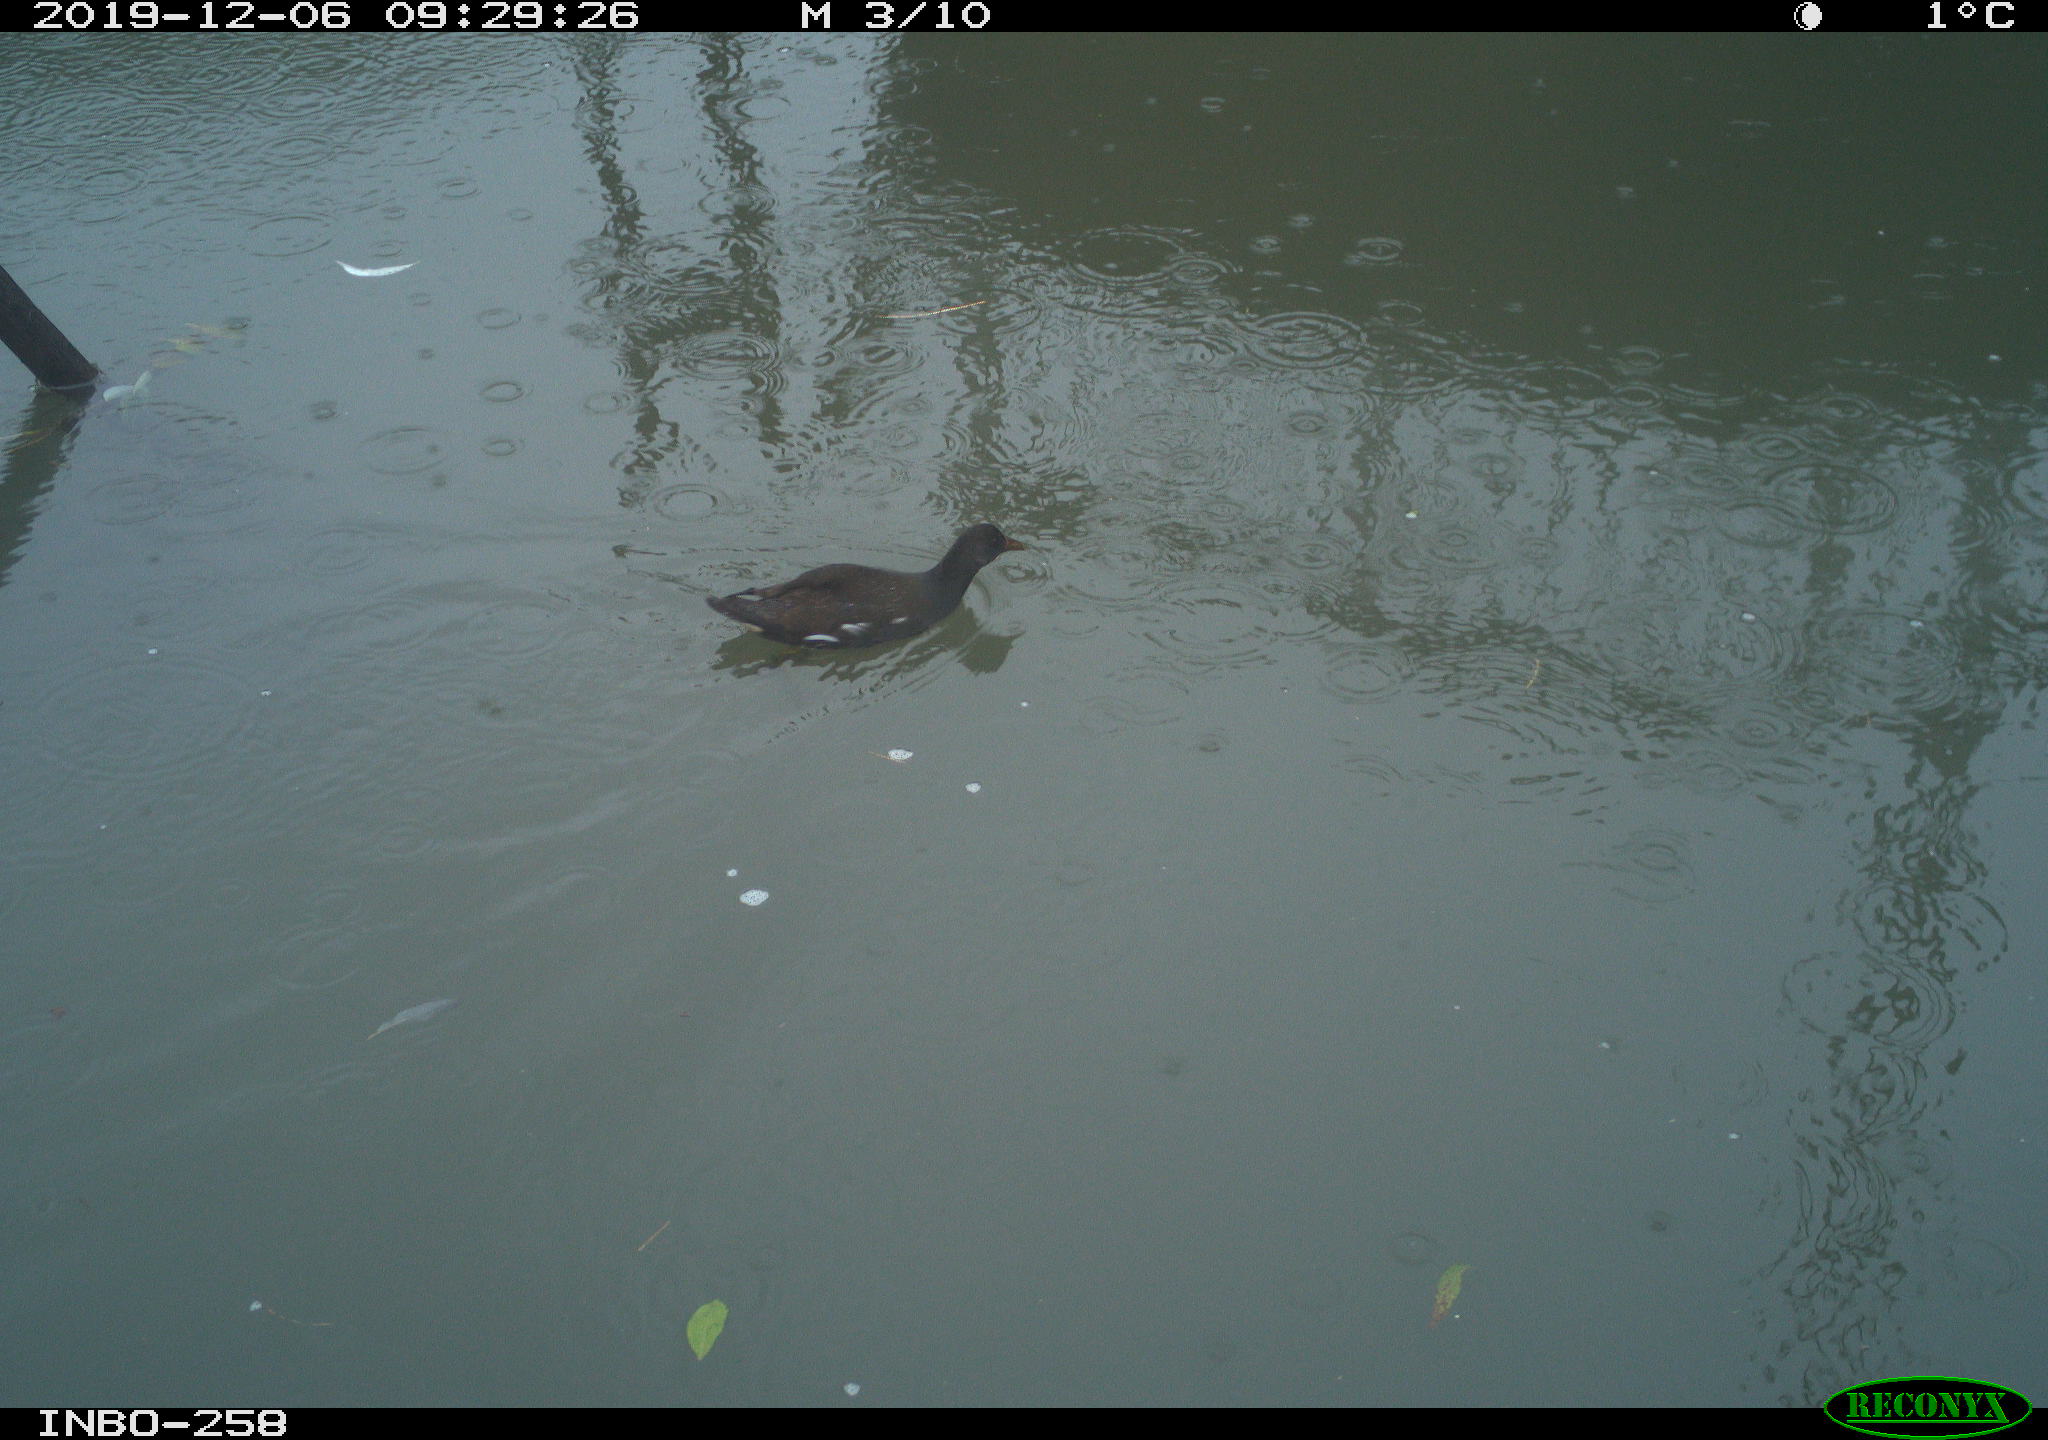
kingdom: Animalia
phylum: Chordata
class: Aves
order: Gruiformes
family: Rallidae
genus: Gallinula
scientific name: Gallinula chloropus
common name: Common moorhen
